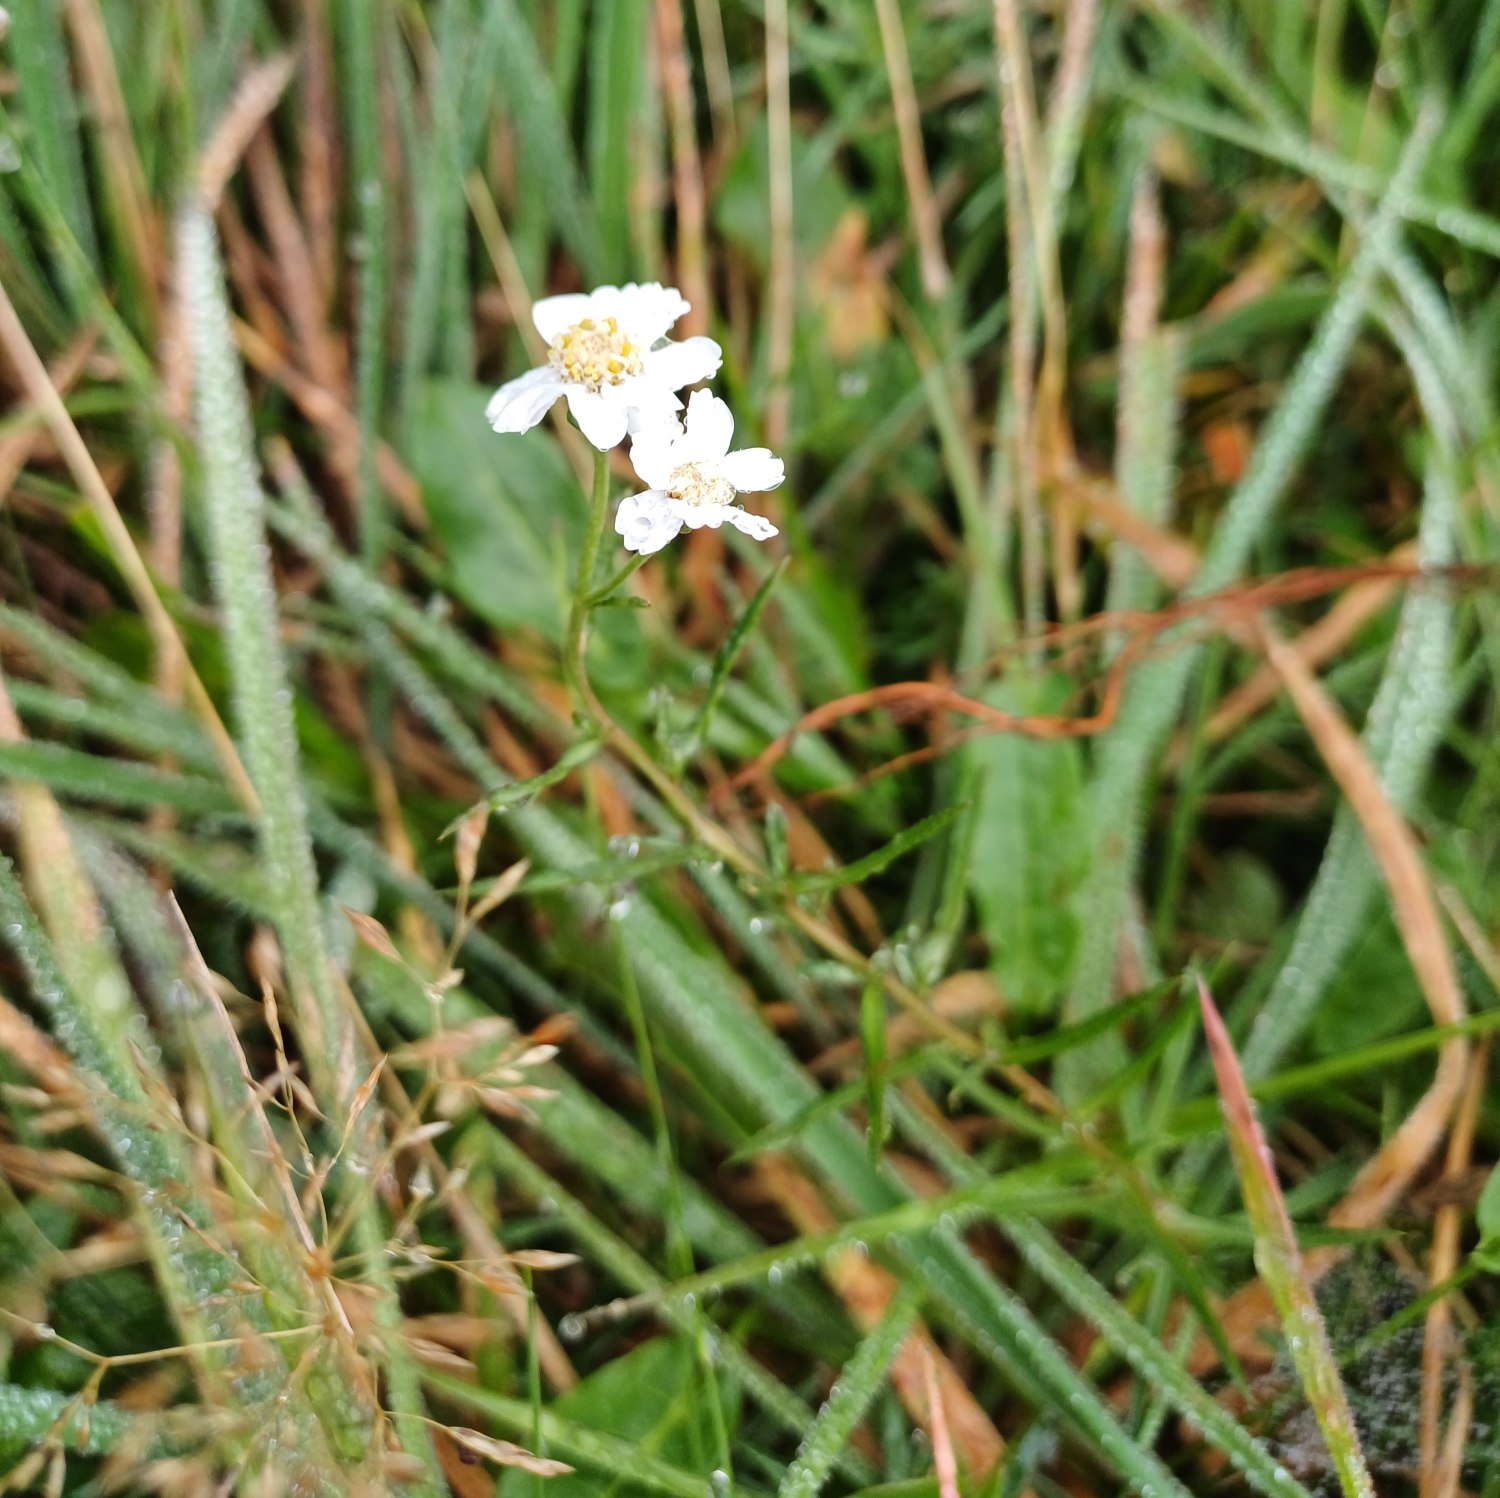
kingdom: Plantae
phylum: Tracheophyta
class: Magnoliopsida
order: Asterales
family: Asteraceae
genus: Achillea
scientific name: Achillea ptarmica
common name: Nyse-røllike
